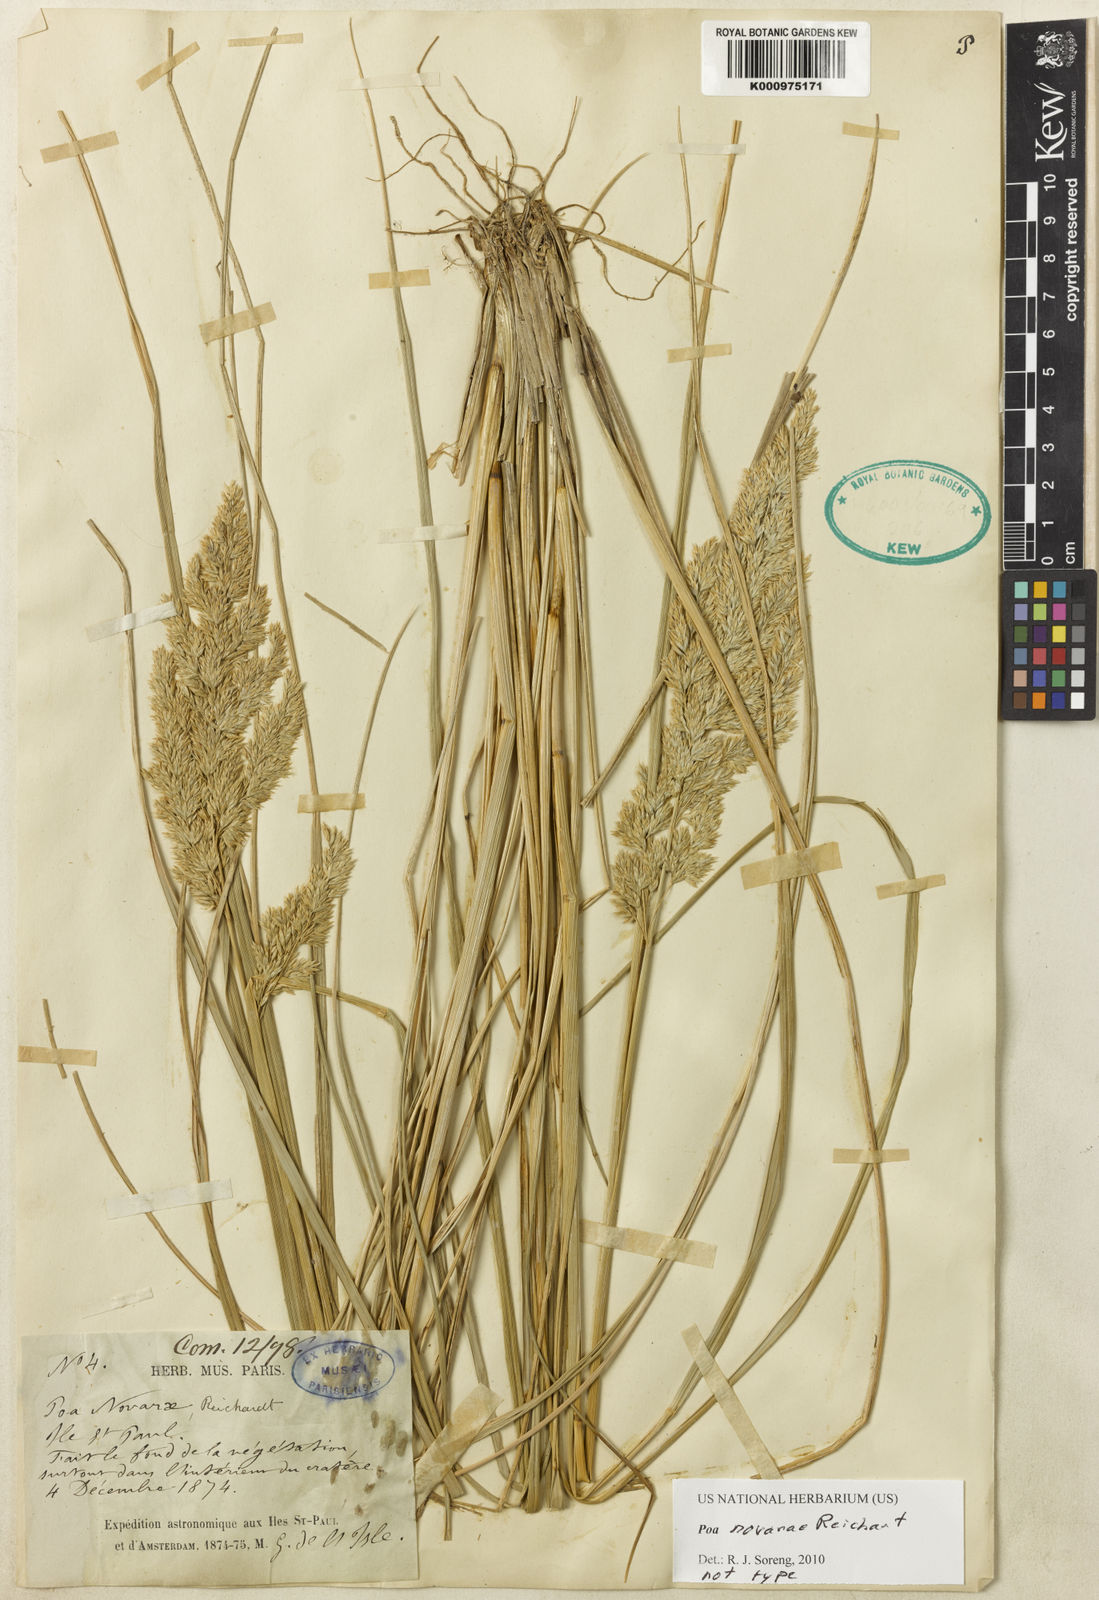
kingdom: Plantae
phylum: Tracheophyta
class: Liliopsida
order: Poales
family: Poaceae
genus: Poa
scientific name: Poa novarae
